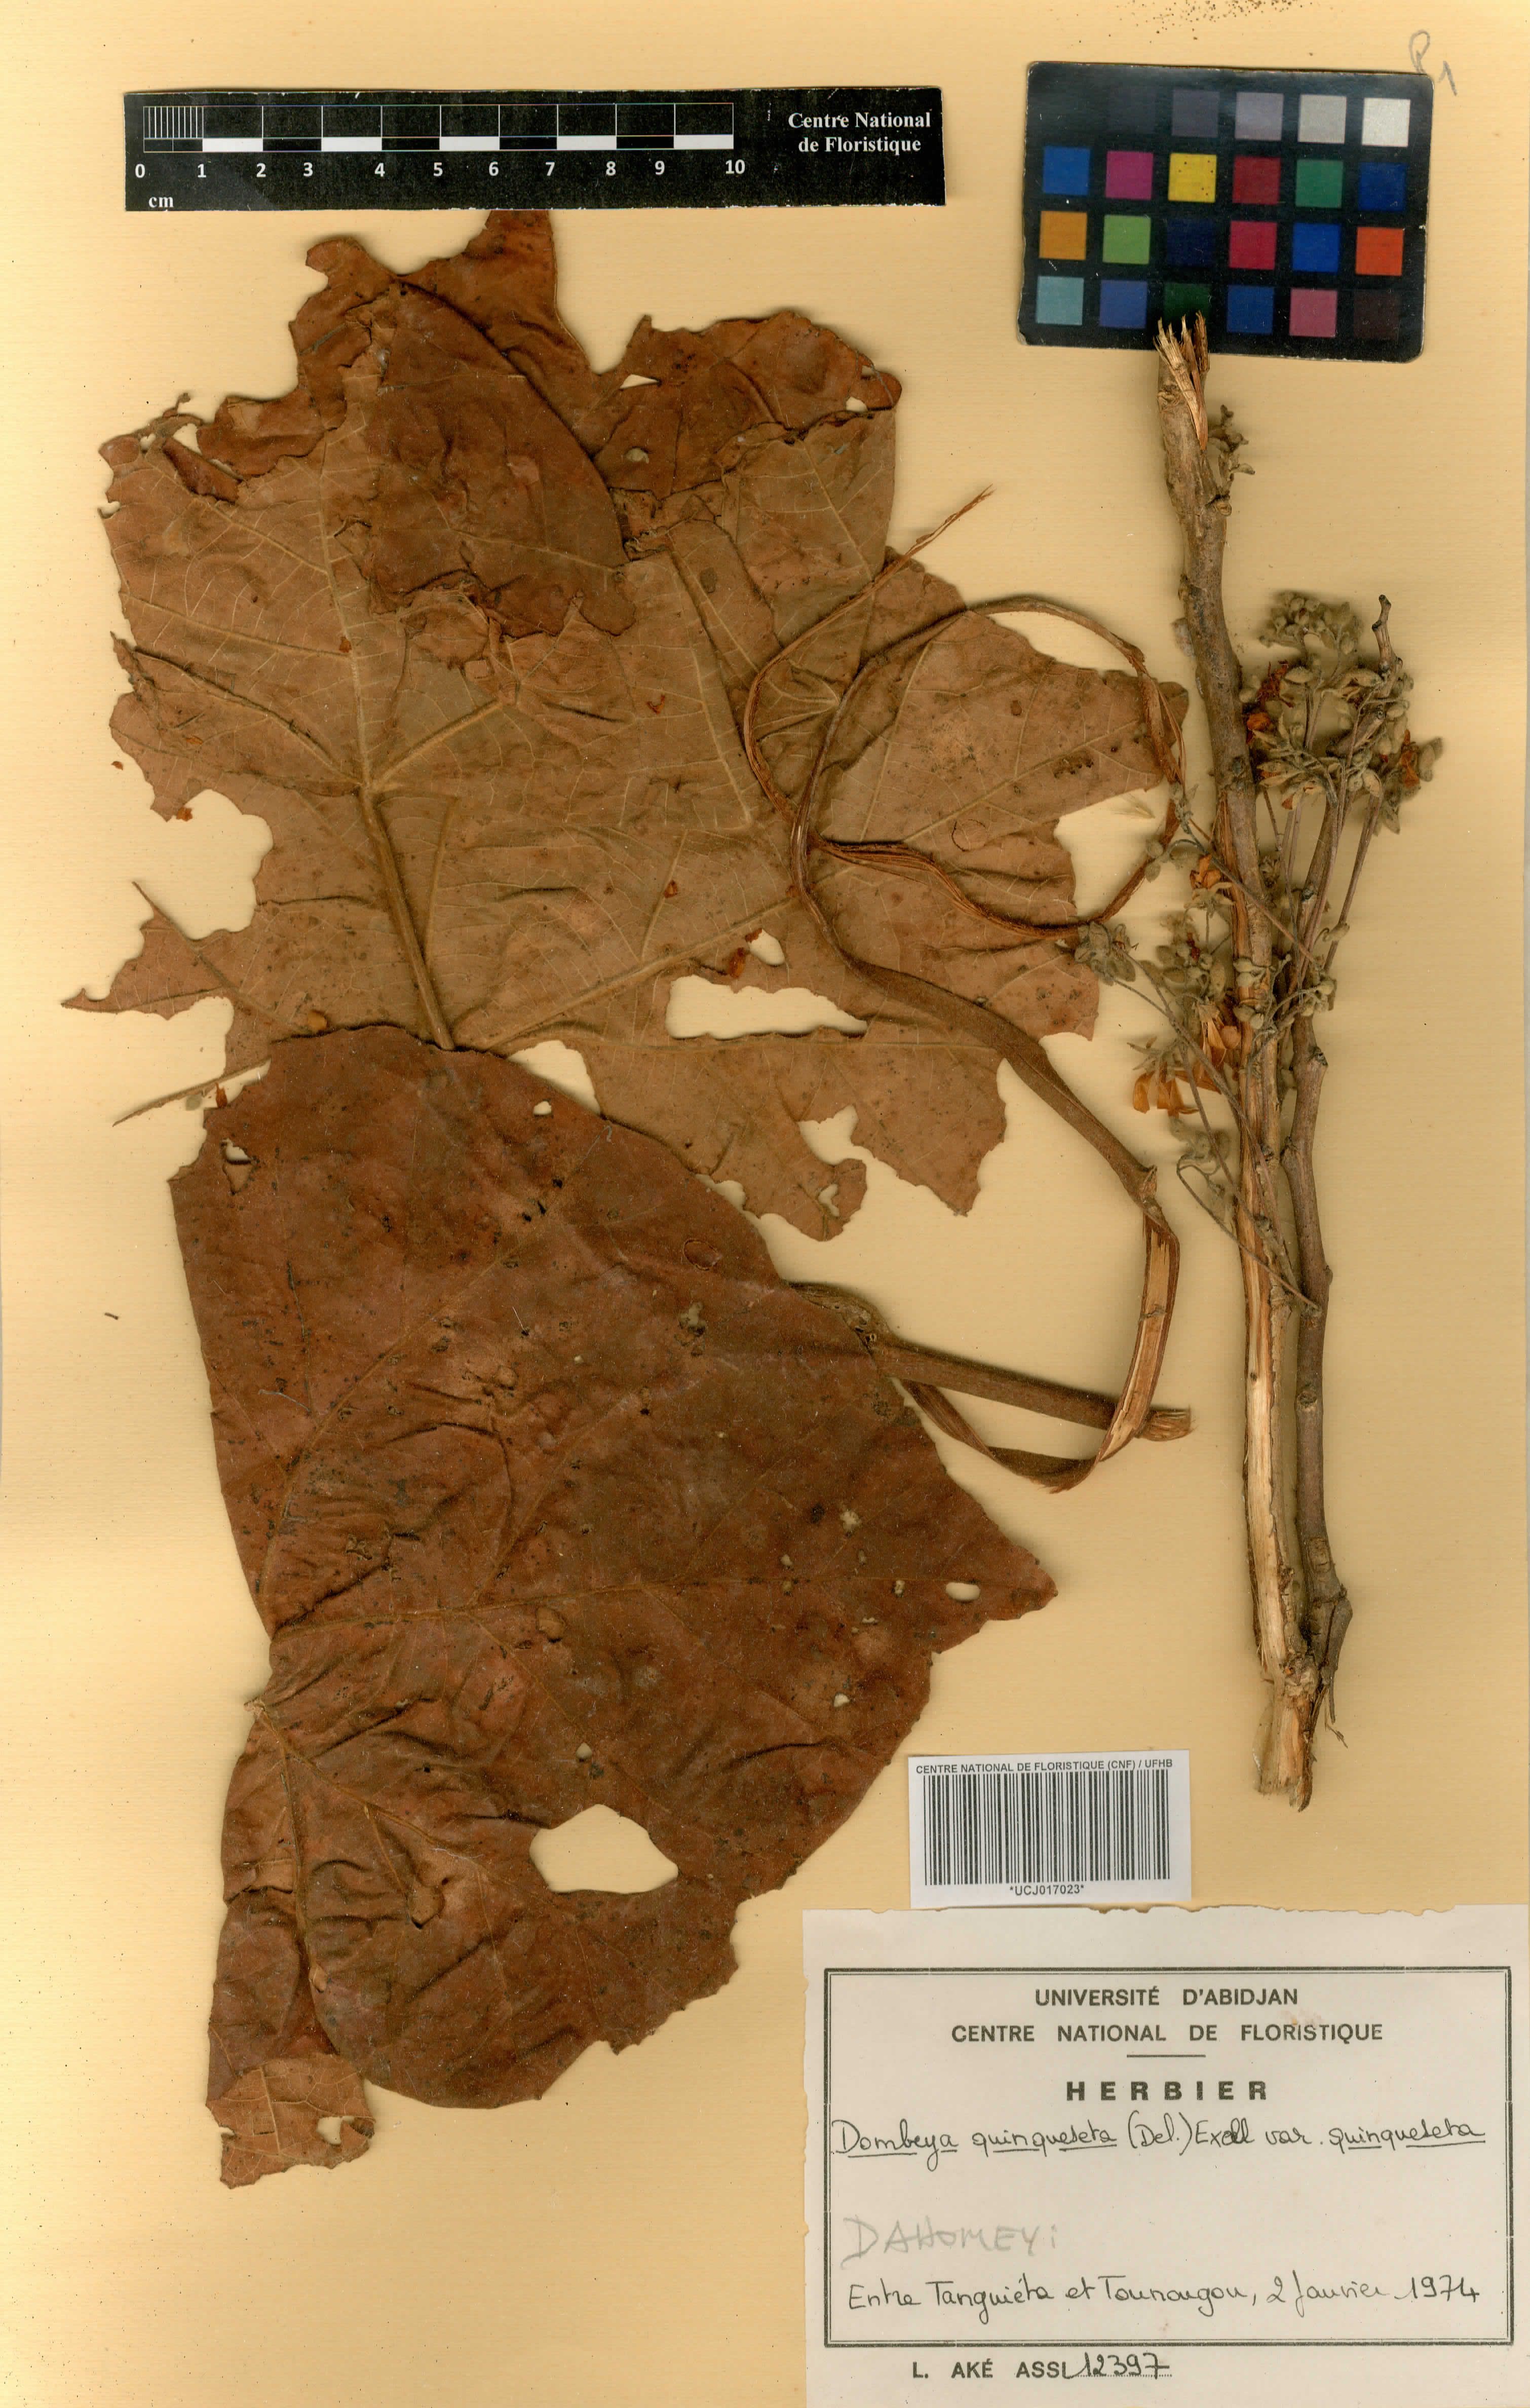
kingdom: Plantae
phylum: Tracheophyta
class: Magnoliopsida
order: Malvales
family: Malvaceae
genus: Dombeya
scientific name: Dombeya quinqueseta
